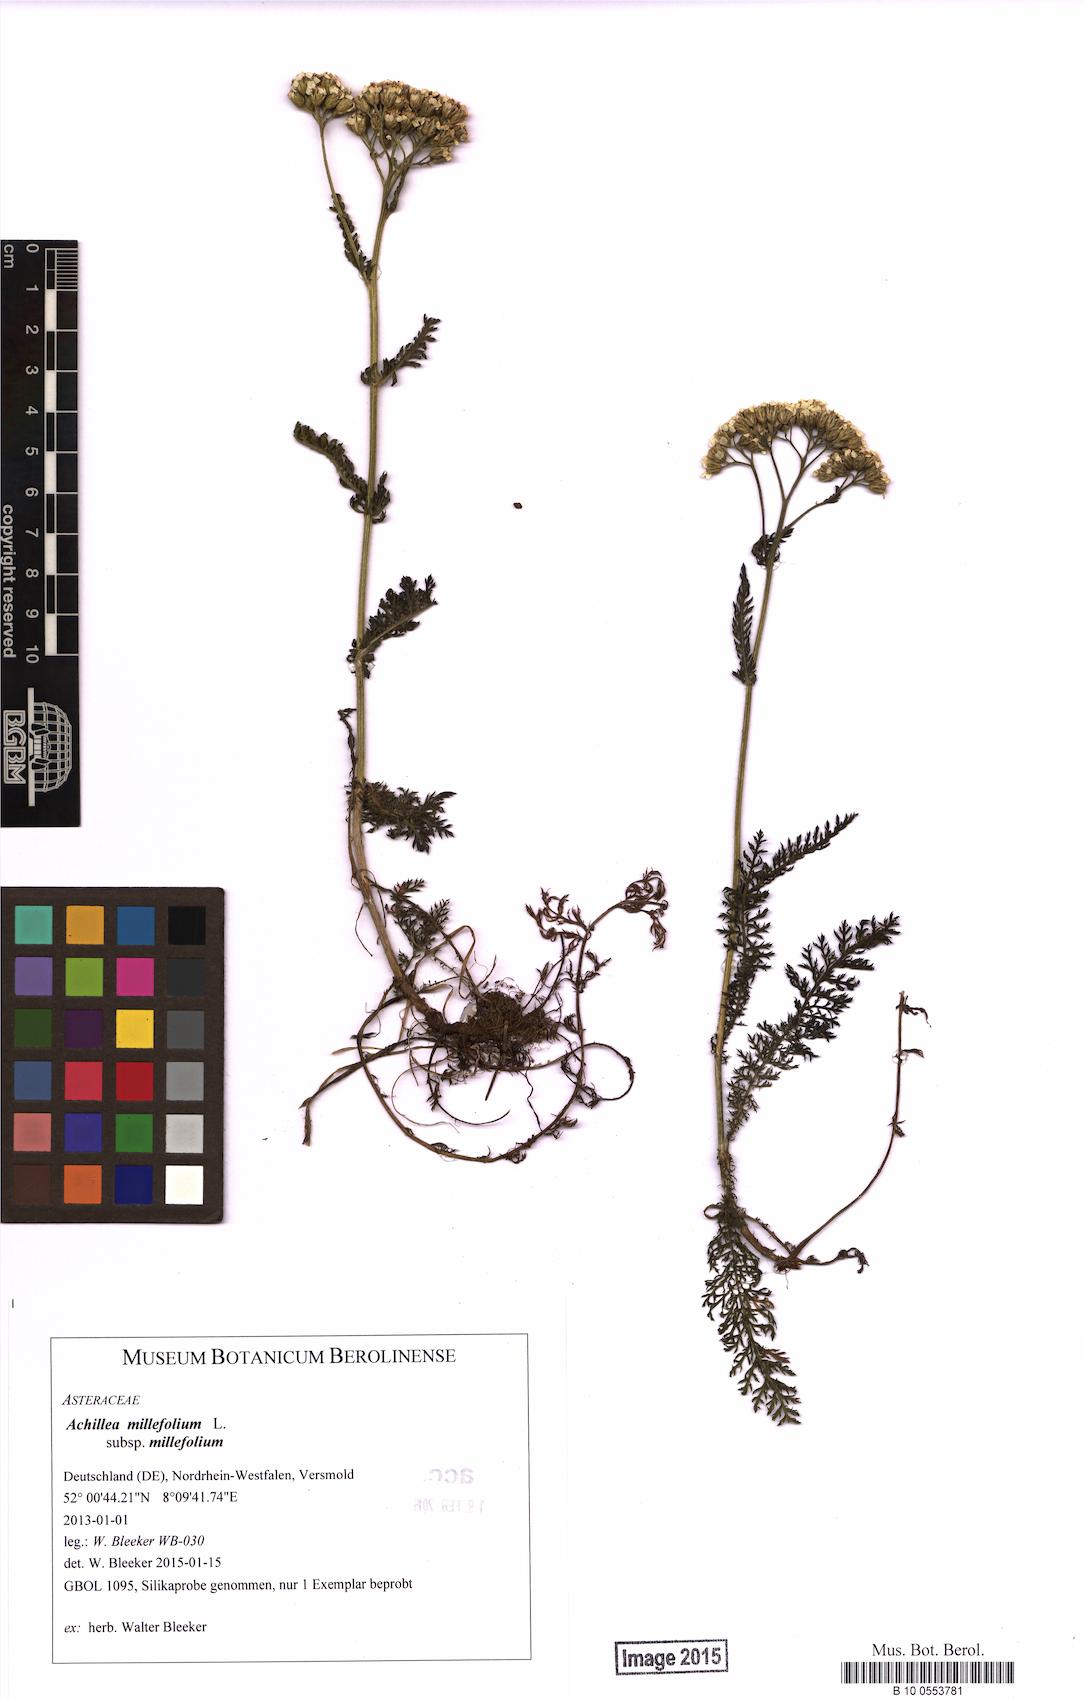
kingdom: Plantae
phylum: Tracheophyta
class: Magnoliopsida
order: Asterales
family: Asteraceae
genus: Achillea
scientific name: Achillea millefolium
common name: Yarrow
